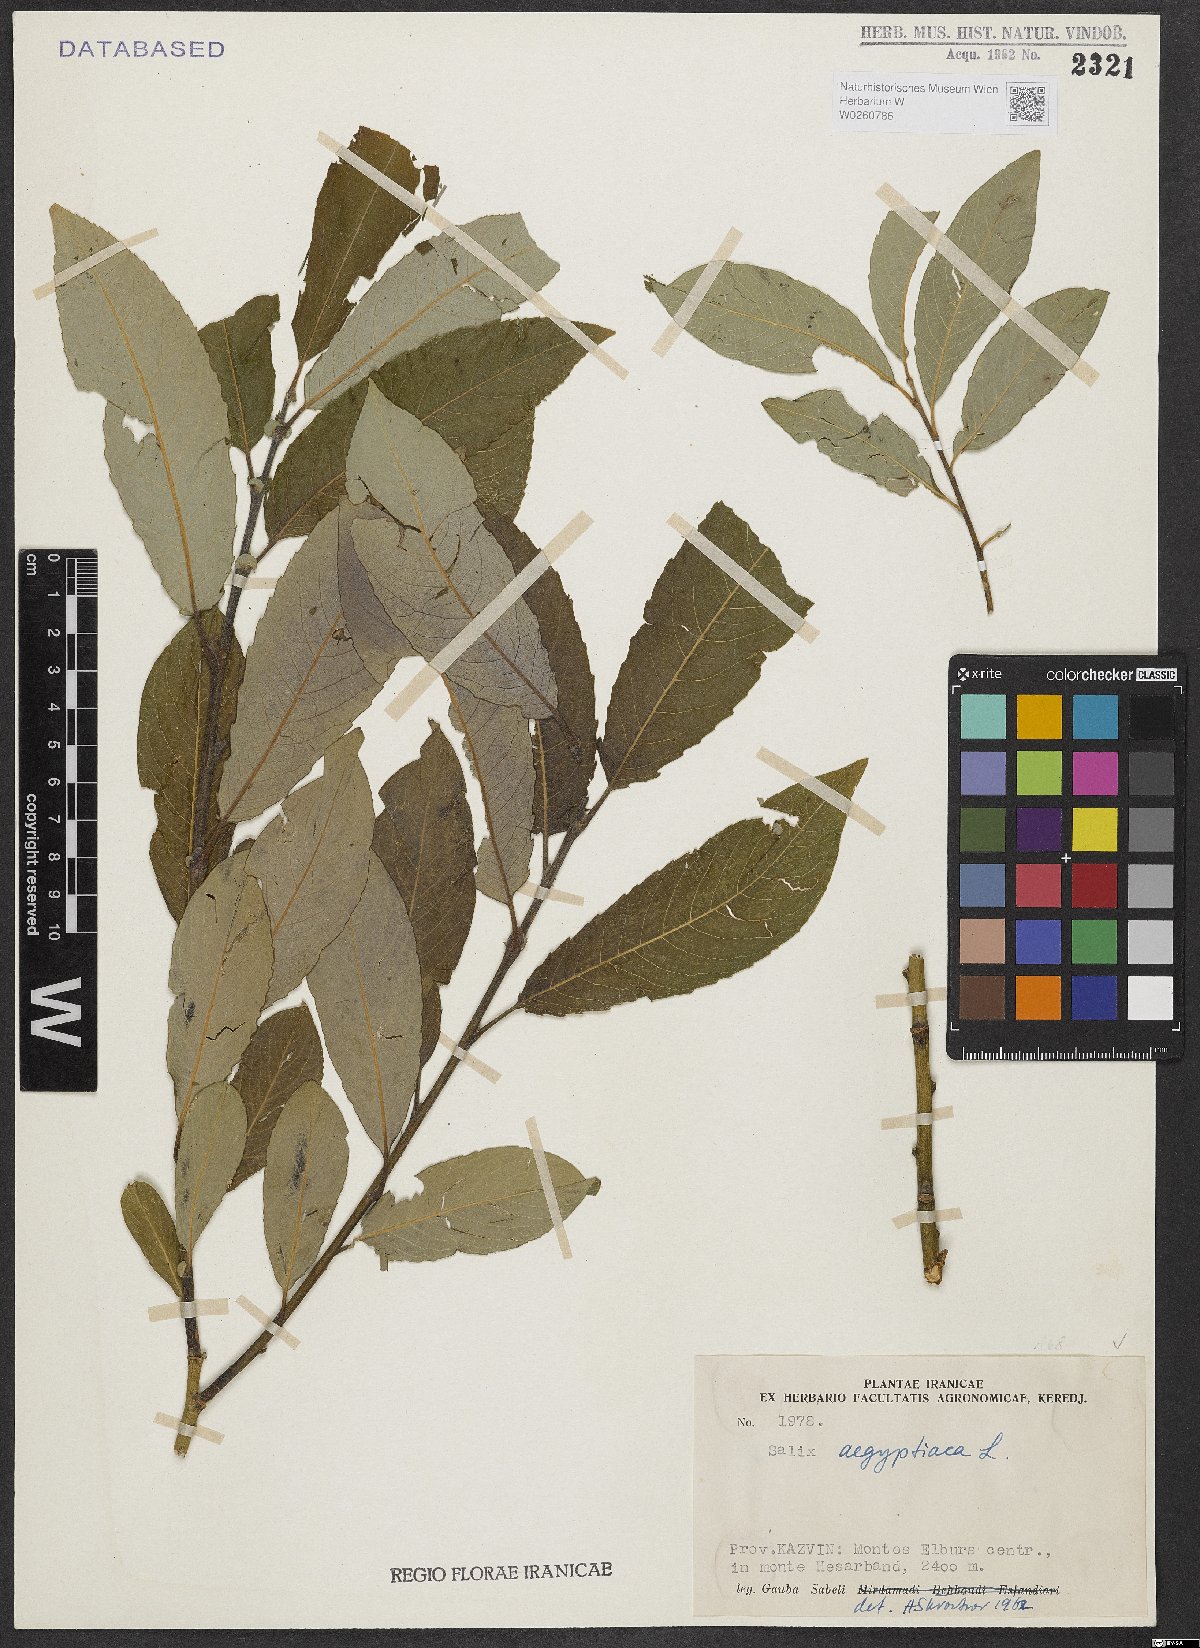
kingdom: Plantae
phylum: Tracheophyta
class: Magnoliopsida
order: Malpighiales
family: Salicaceae
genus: Salix
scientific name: Salix aegyptiaca
